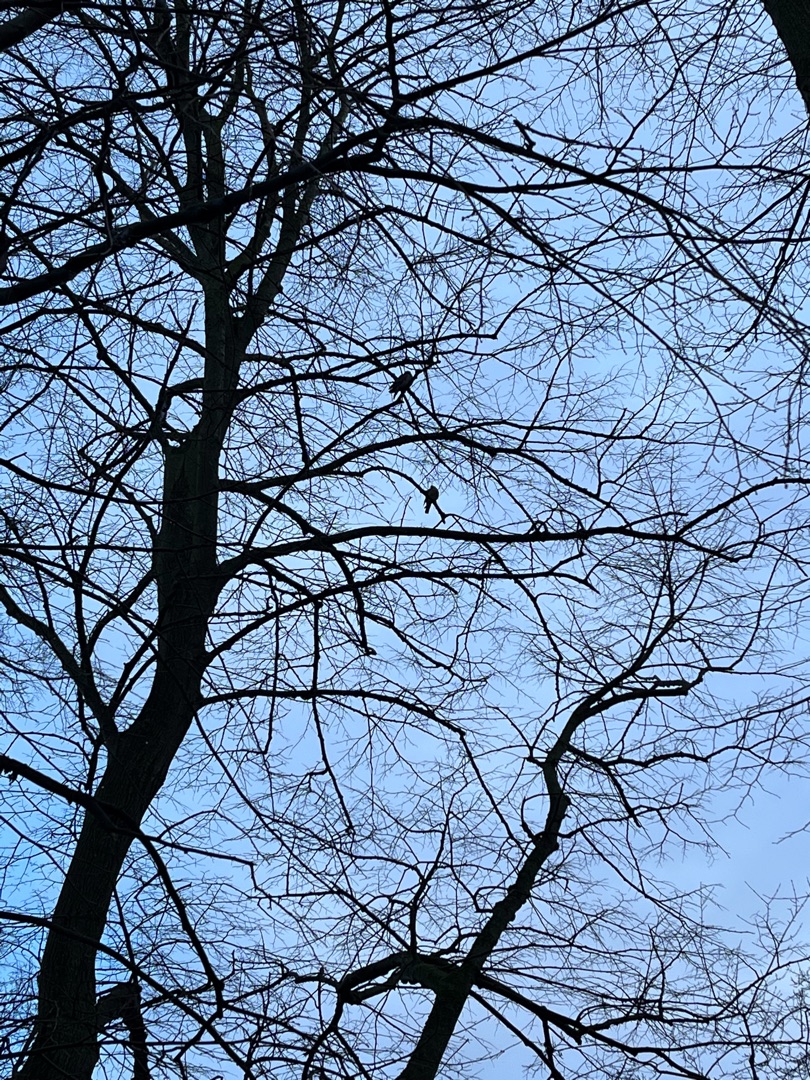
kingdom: Animalia
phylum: Chordata
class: Aves
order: Columbiformes
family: Columbidae
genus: Columba
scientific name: Columba palumbus
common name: Ringdue
